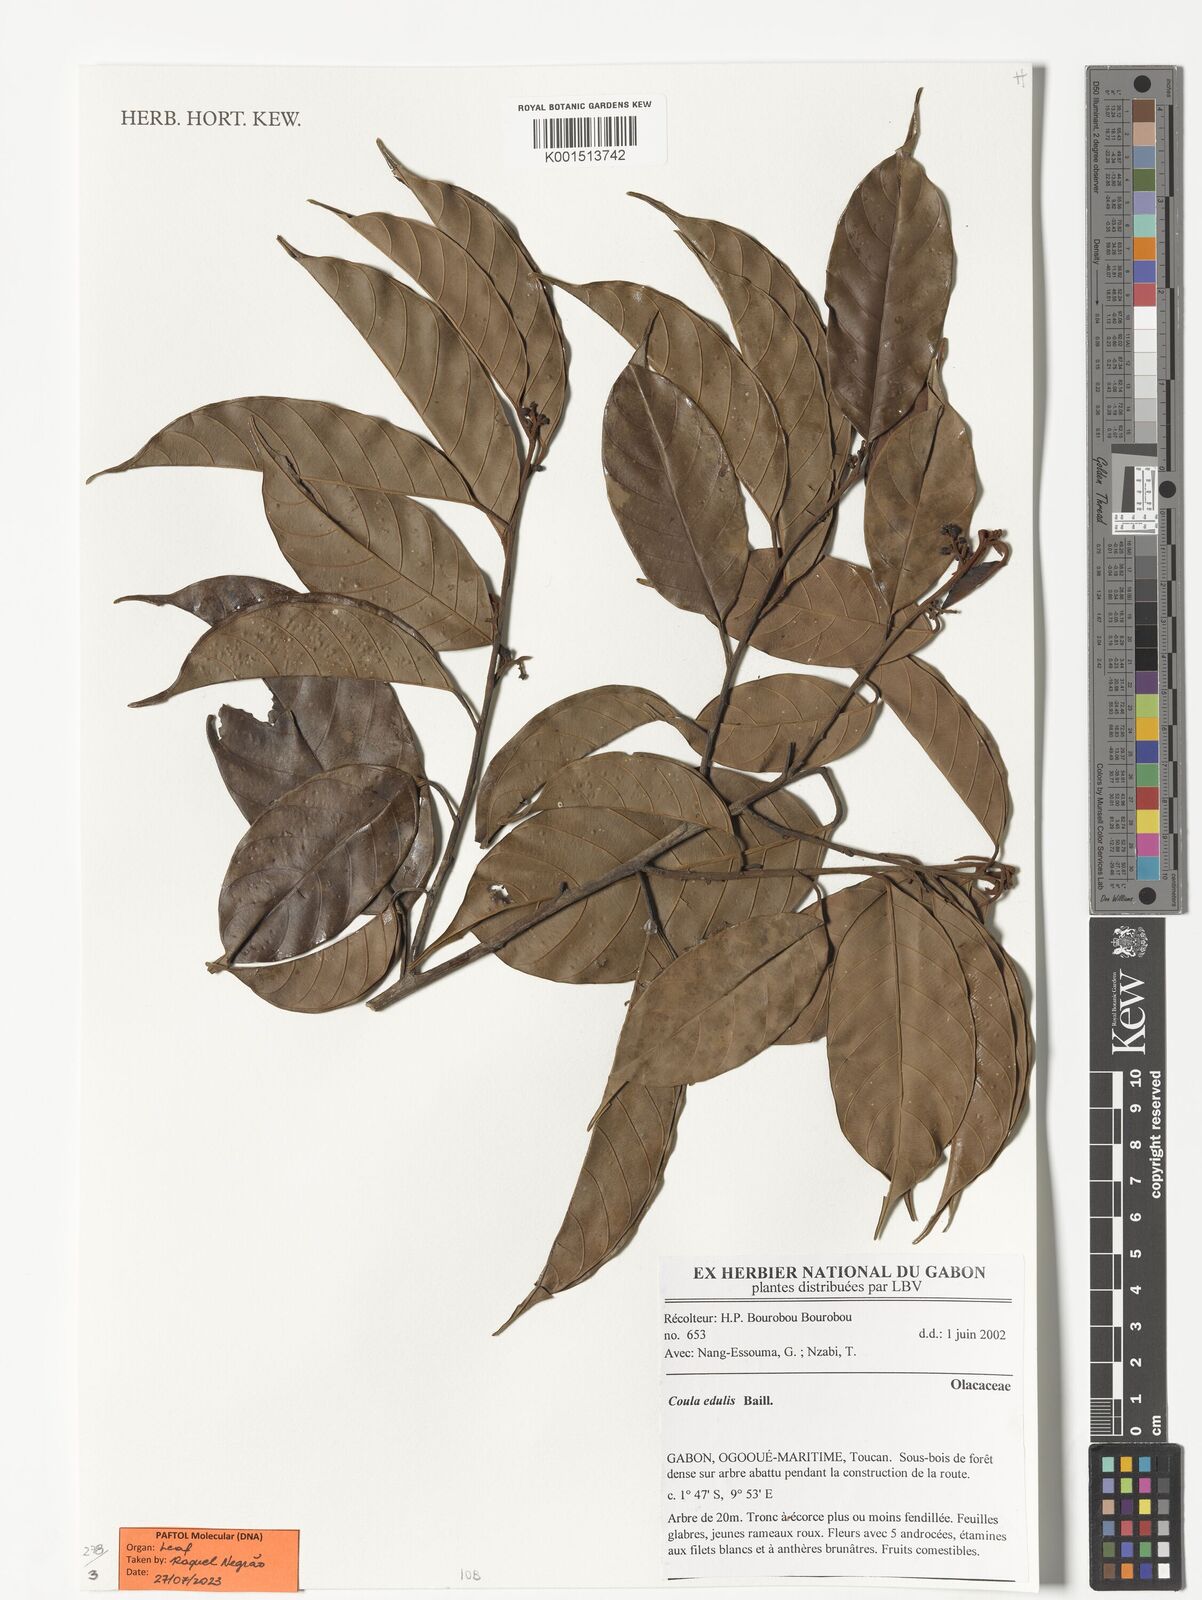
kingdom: Plantae
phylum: Tracheophyta
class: Magnoliopsida
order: Santalales
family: Coulaceae
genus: Coula
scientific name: Coula edulis
